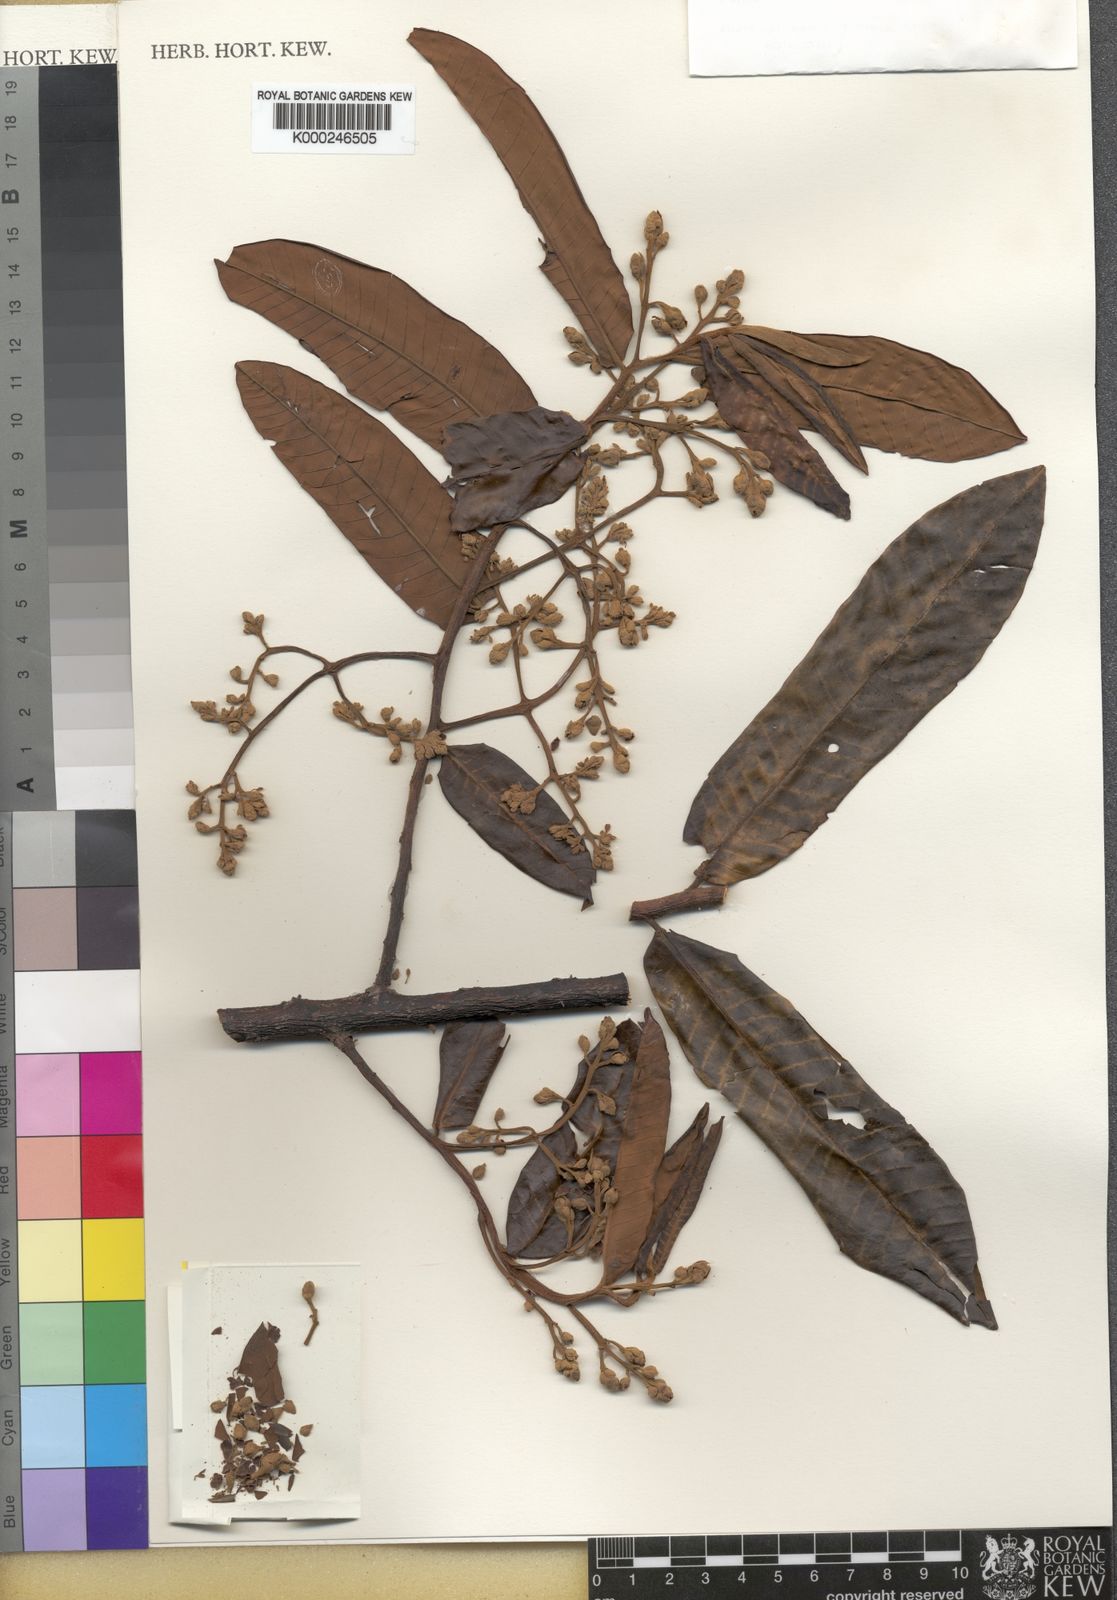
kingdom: Plantae
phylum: Tracheophyta
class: Magnoliopsida
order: Magnoliales
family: Myristicaceae
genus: Virola
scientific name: Virola surinamensis
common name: Baboonwood
